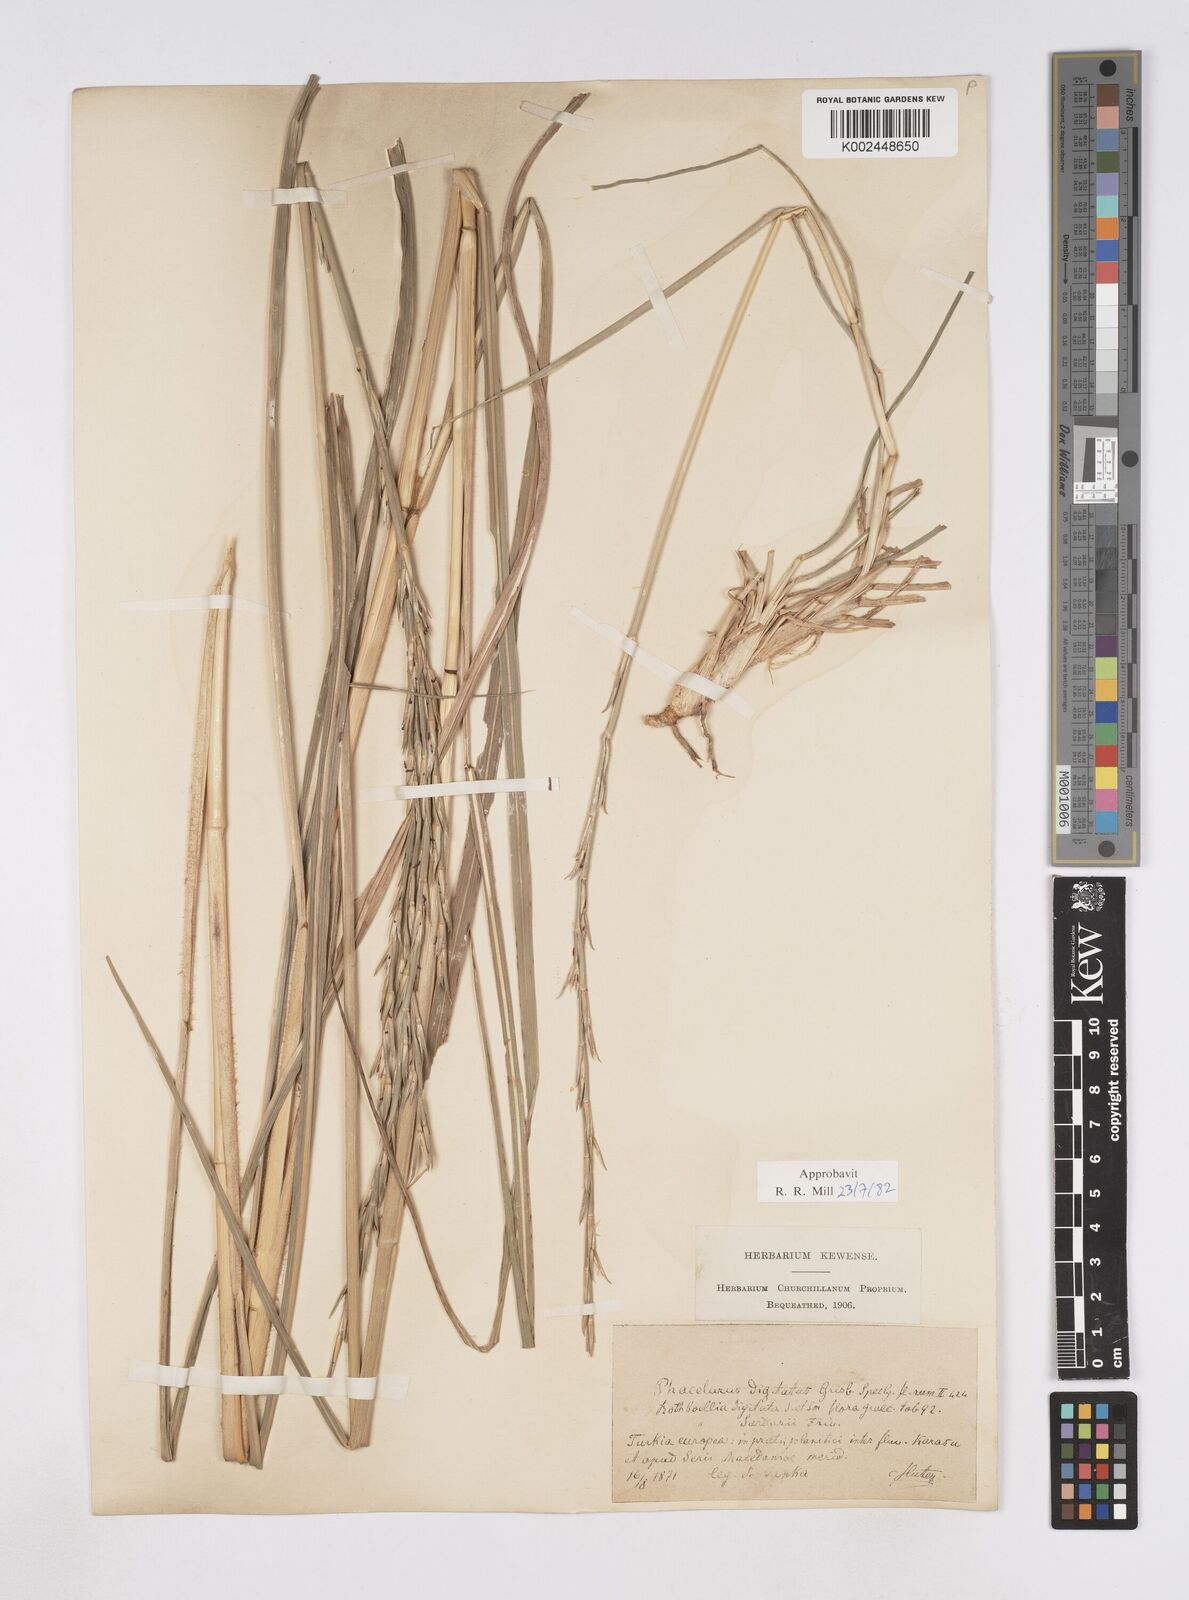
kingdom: Plantae
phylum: Tracheophyta
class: Liliopsida
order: Poales
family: Poaceae
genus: Phacelurus
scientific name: Phacelurus digitatus
